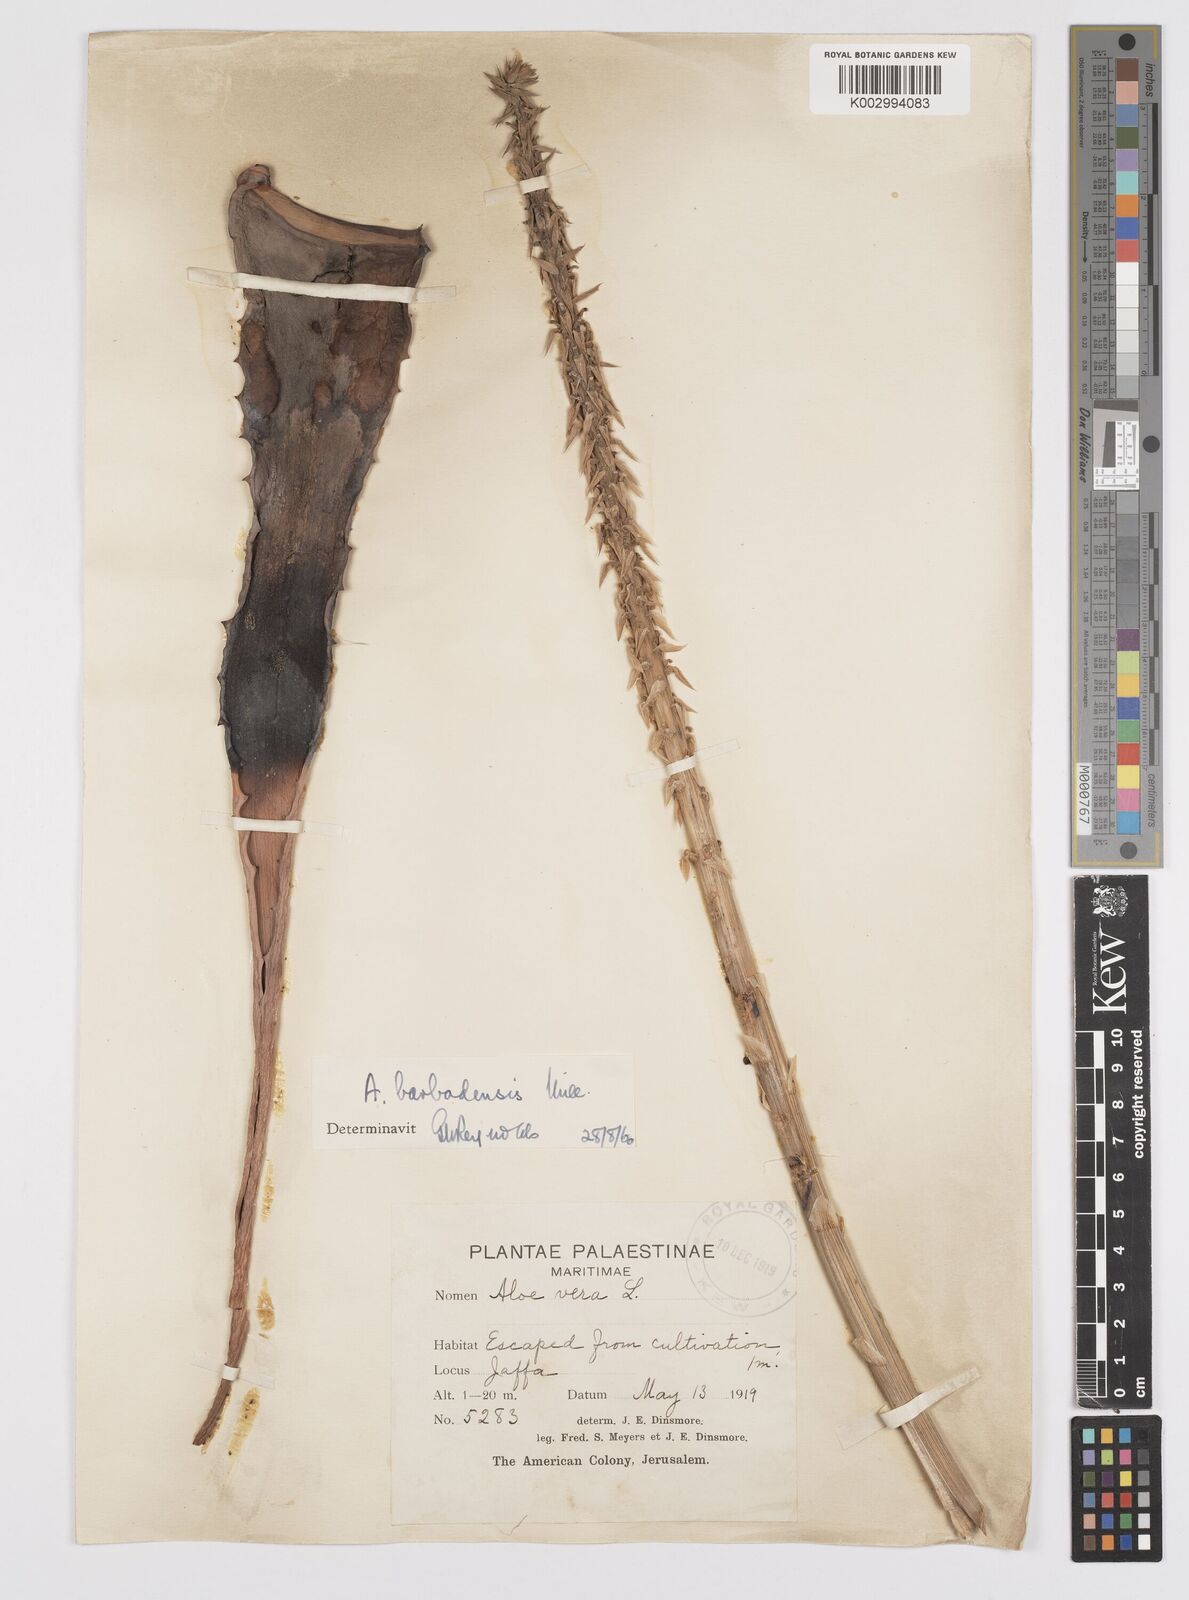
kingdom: Plantae
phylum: Tracheophyta
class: Liliopsida
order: Asparagales
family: Asphodelaceae
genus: Aloe
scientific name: Aloe vera
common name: Barbados aloe
